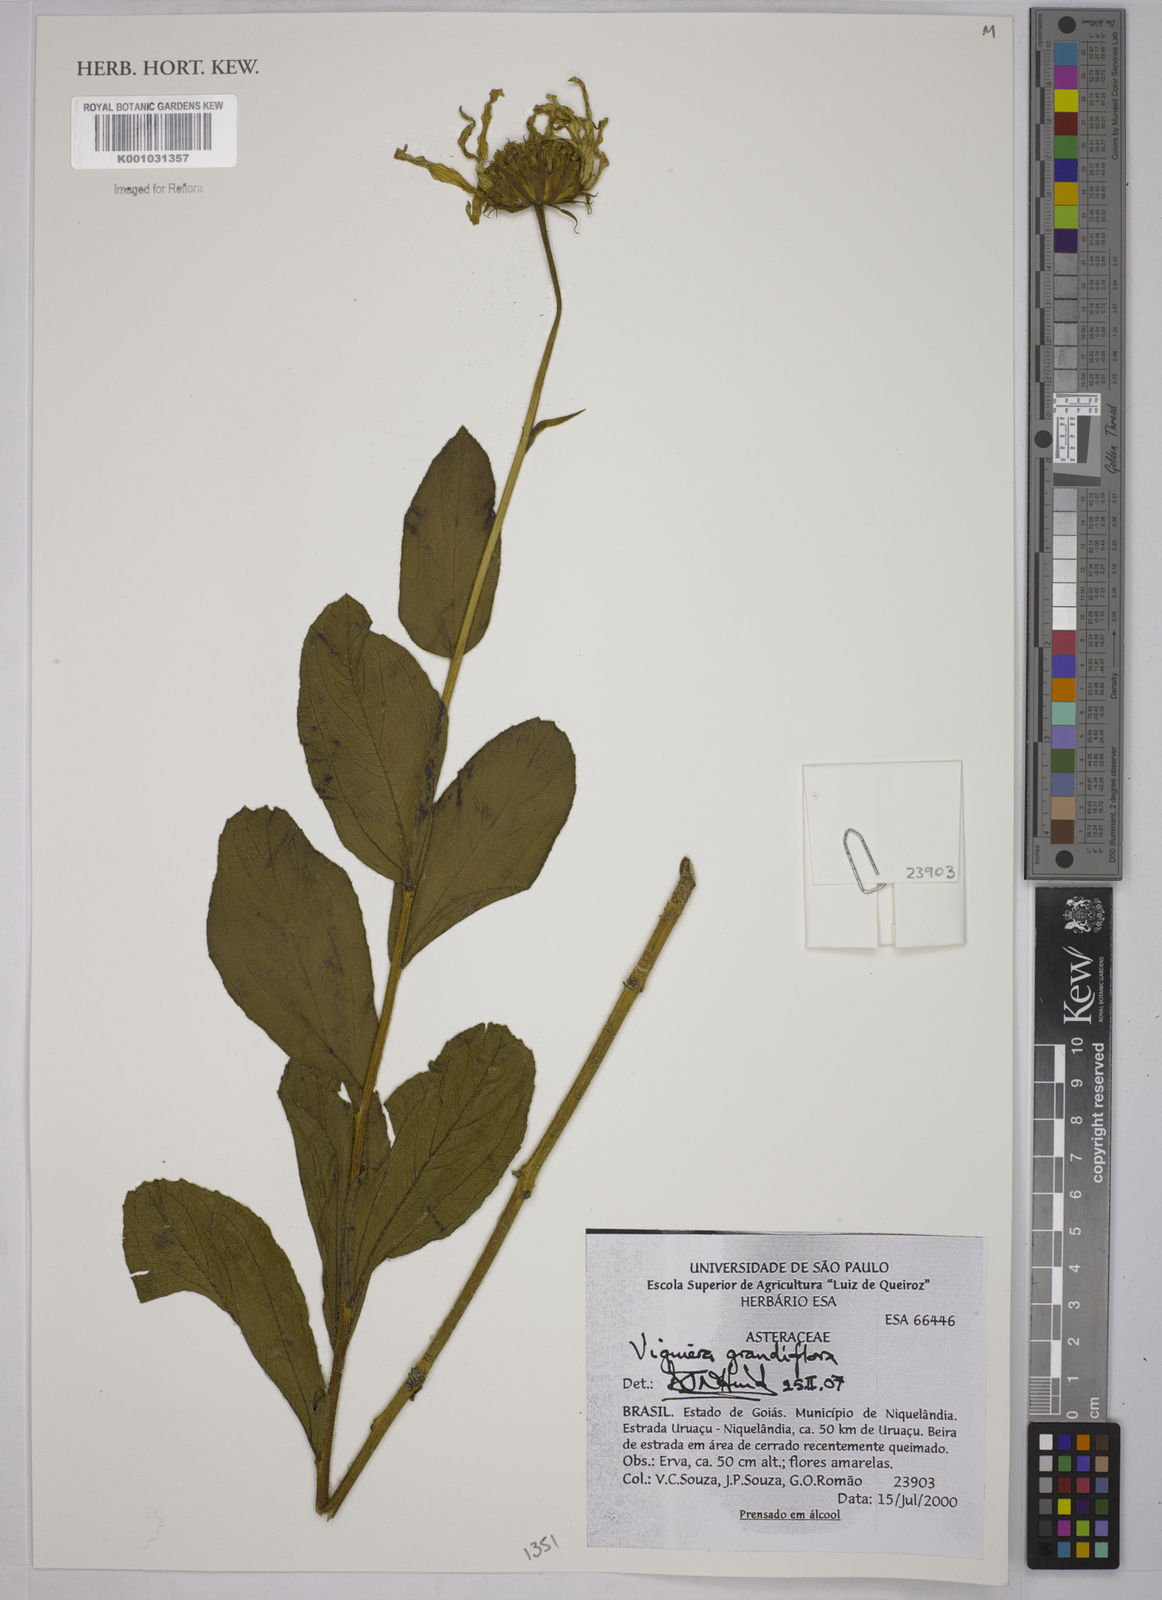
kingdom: Plantae
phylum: Tracheophyta
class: Magnoliopsida
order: Asterales
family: Asteraceae
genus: Aldama
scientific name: Aldama grandiflora
